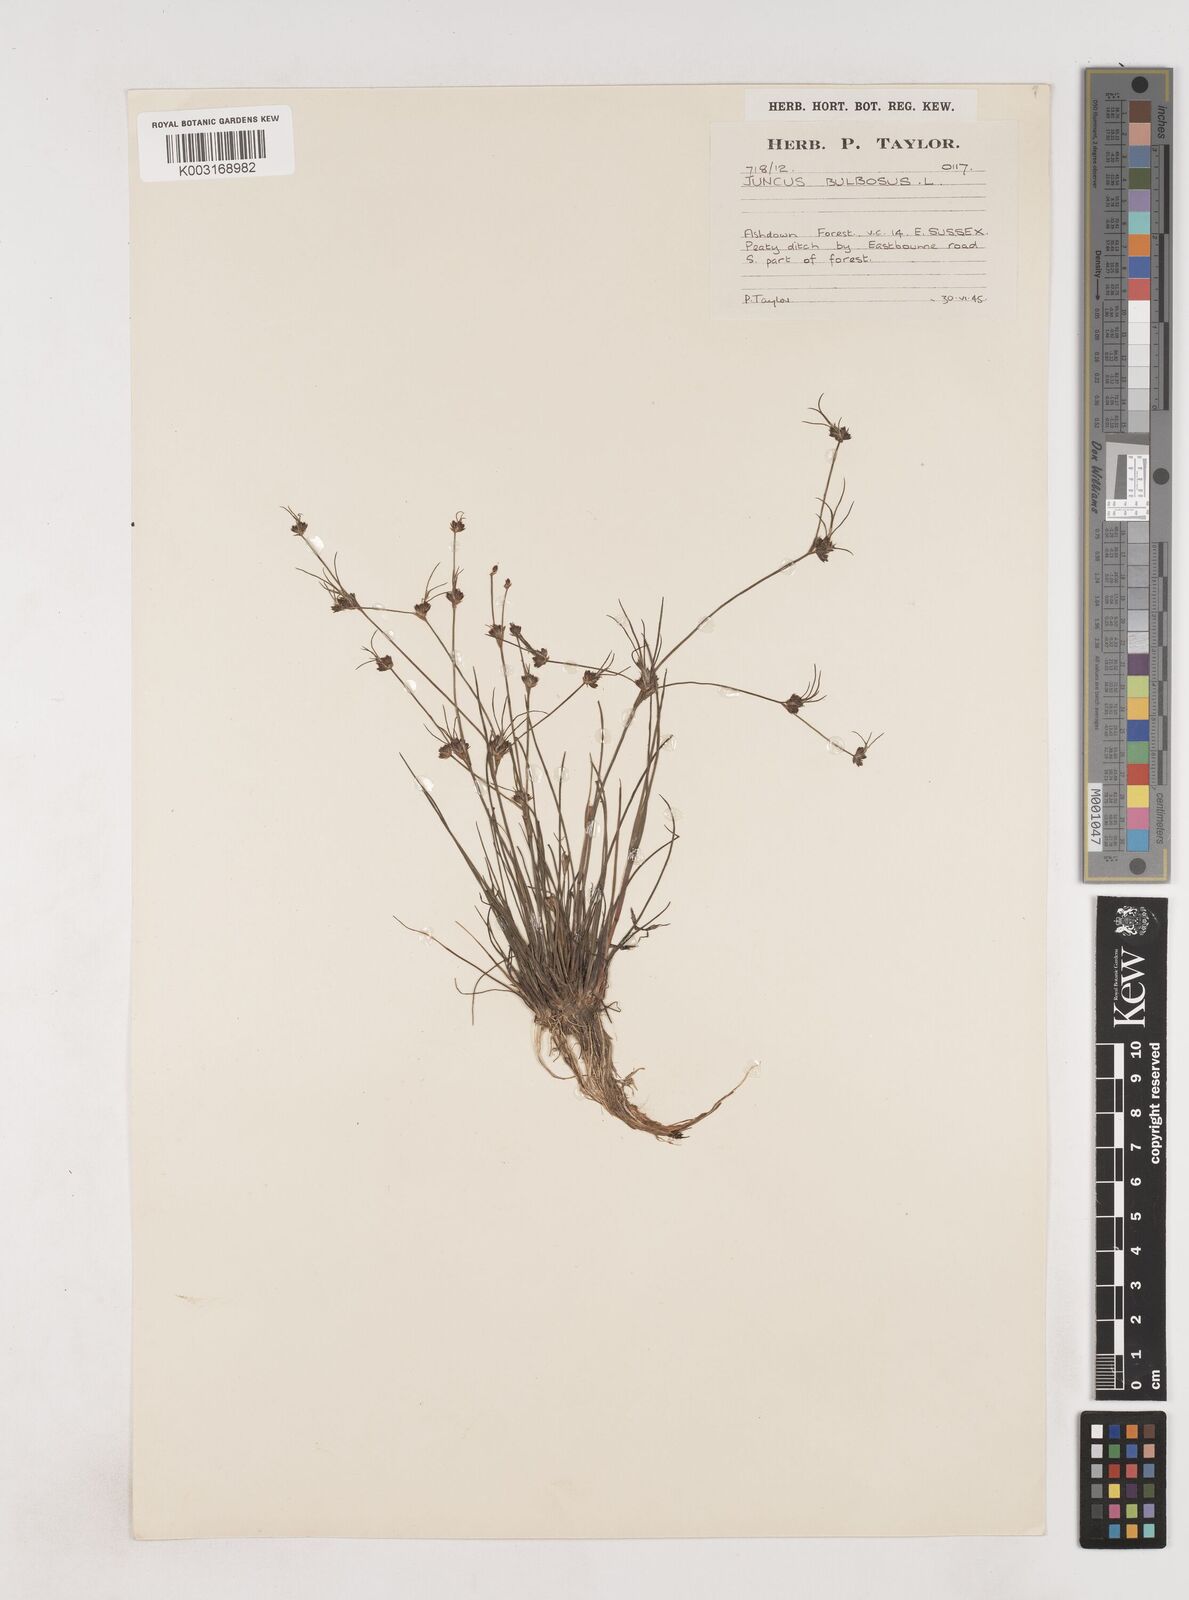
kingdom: Plantae
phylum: Tracheophyta
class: Liliopsida
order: Poales
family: Juncaceae
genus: Juncus
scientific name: Juncus bulbosus
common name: Bulbous rush
